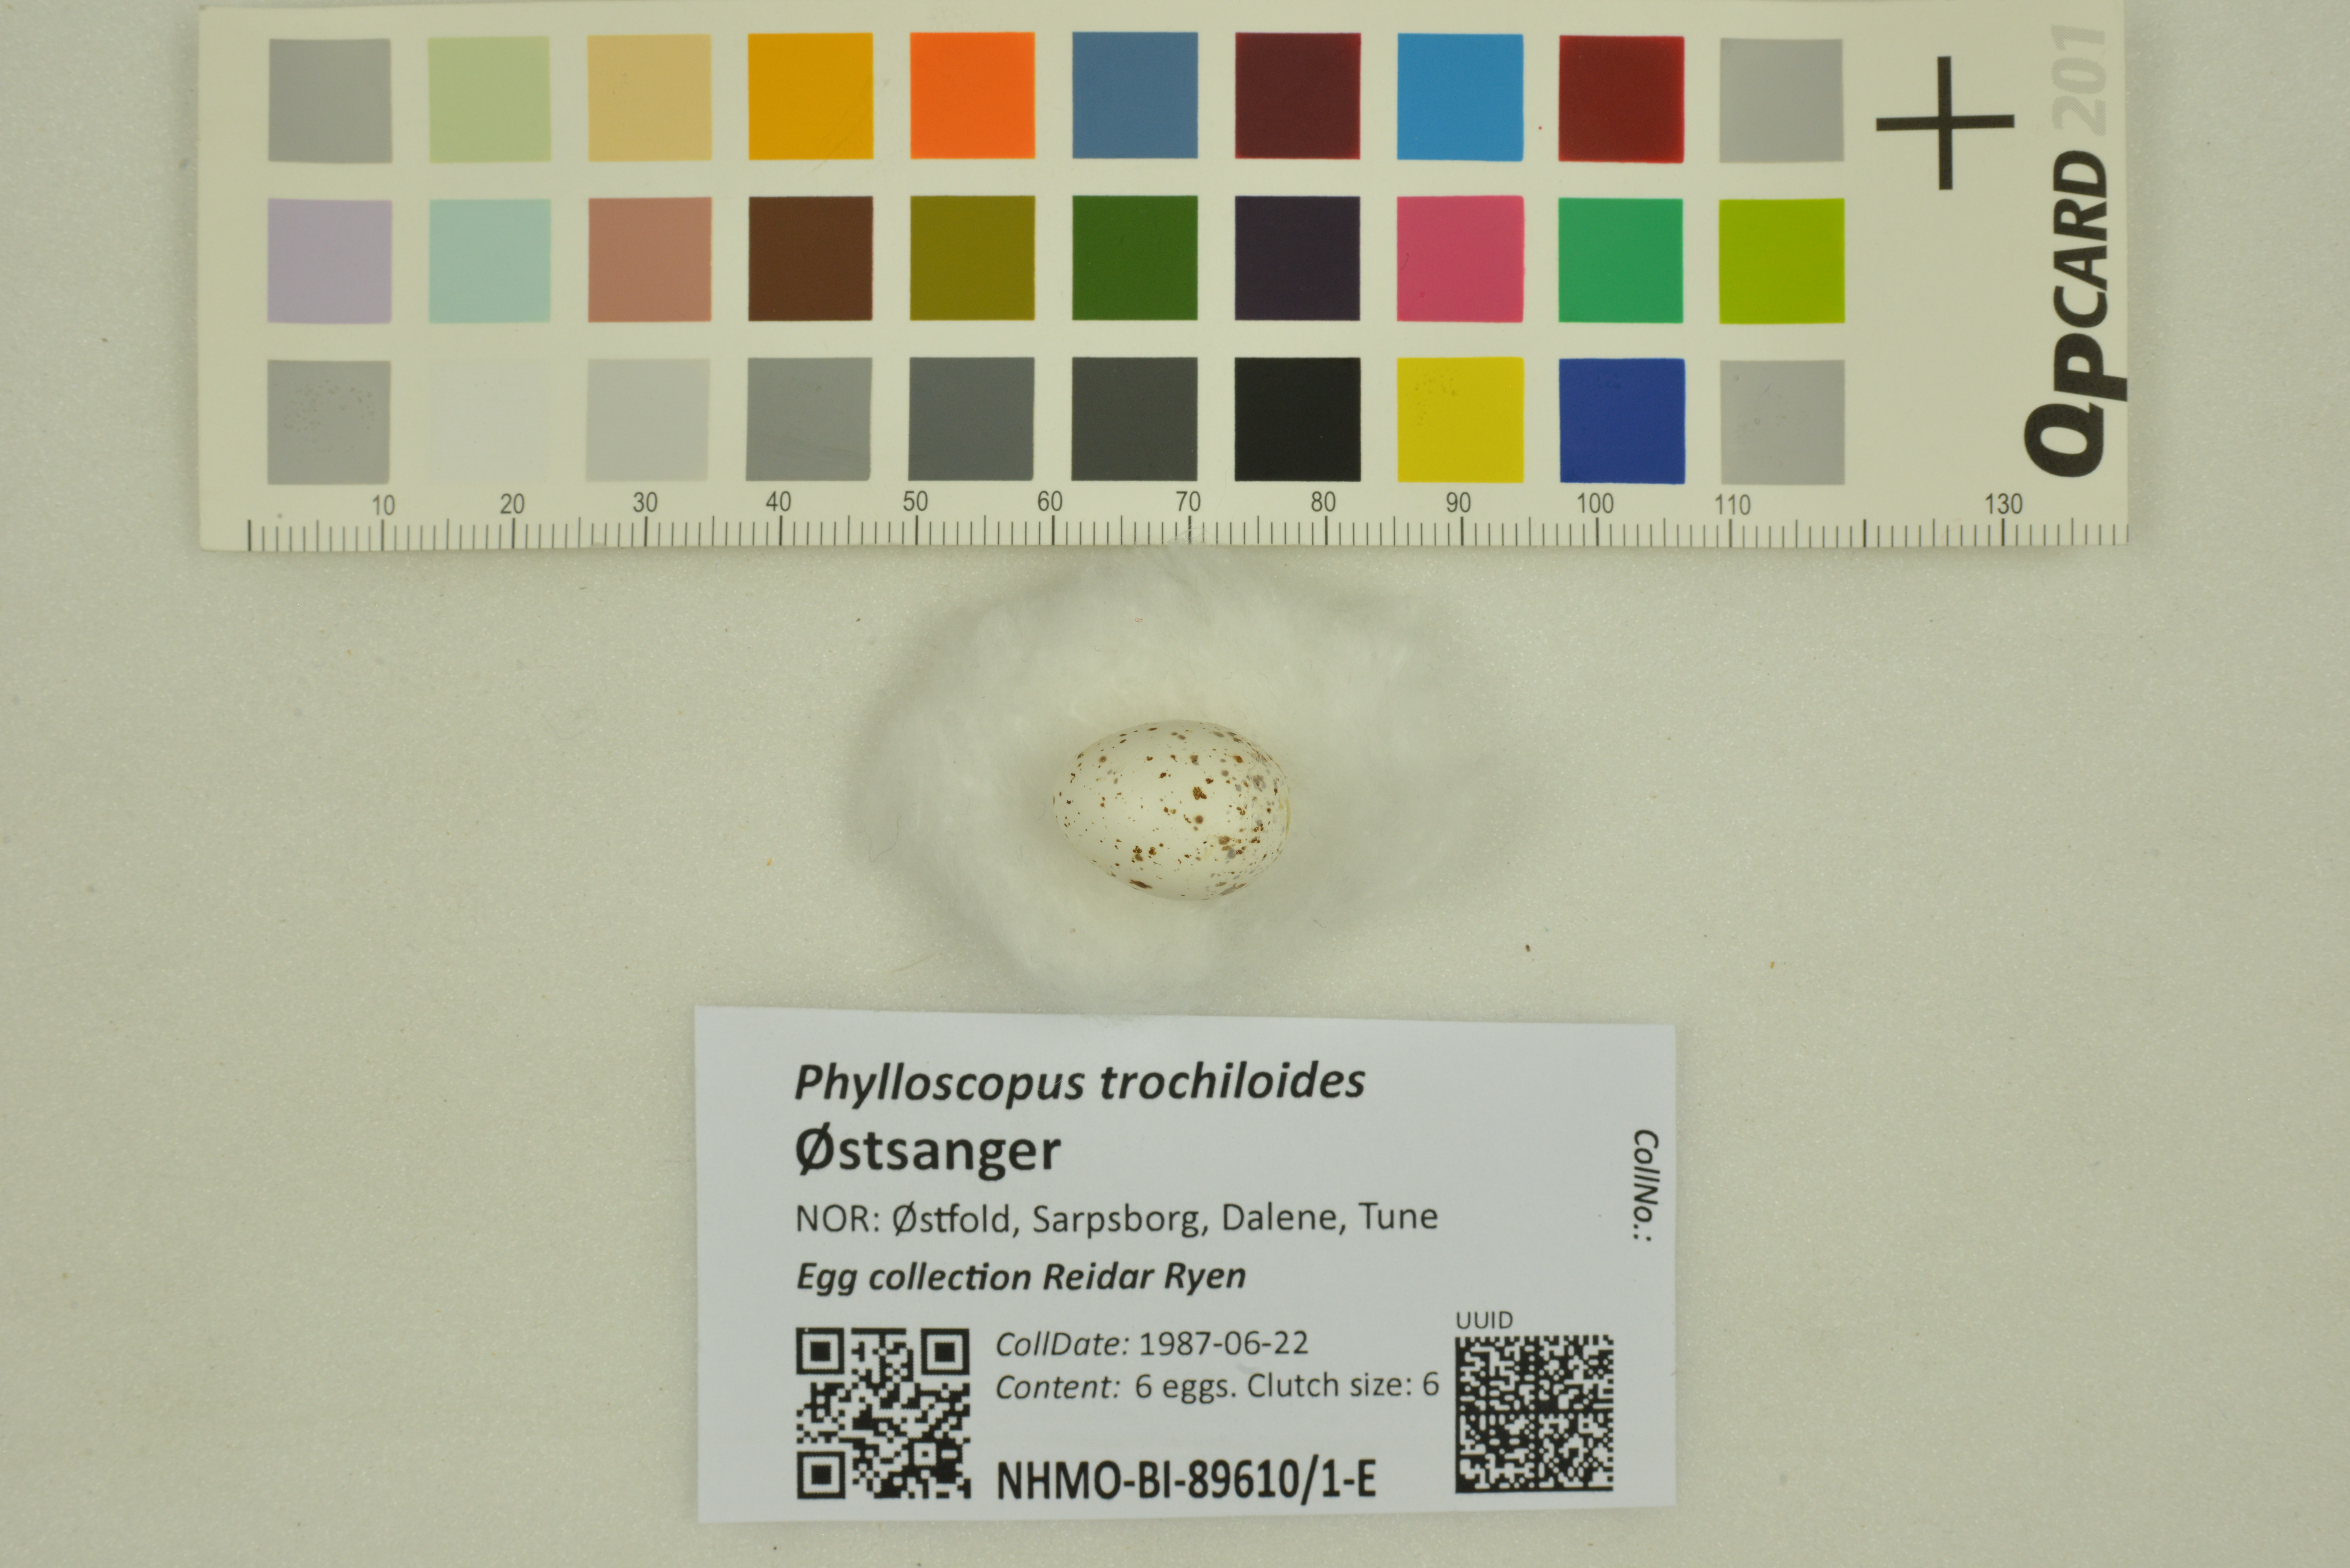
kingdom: Animalia
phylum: Chordata
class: Aves
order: Passeriformes
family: Phylloscopidae
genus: Phylloscopus
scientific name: Phylloscopus trochiloides
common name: Greenish warbler
